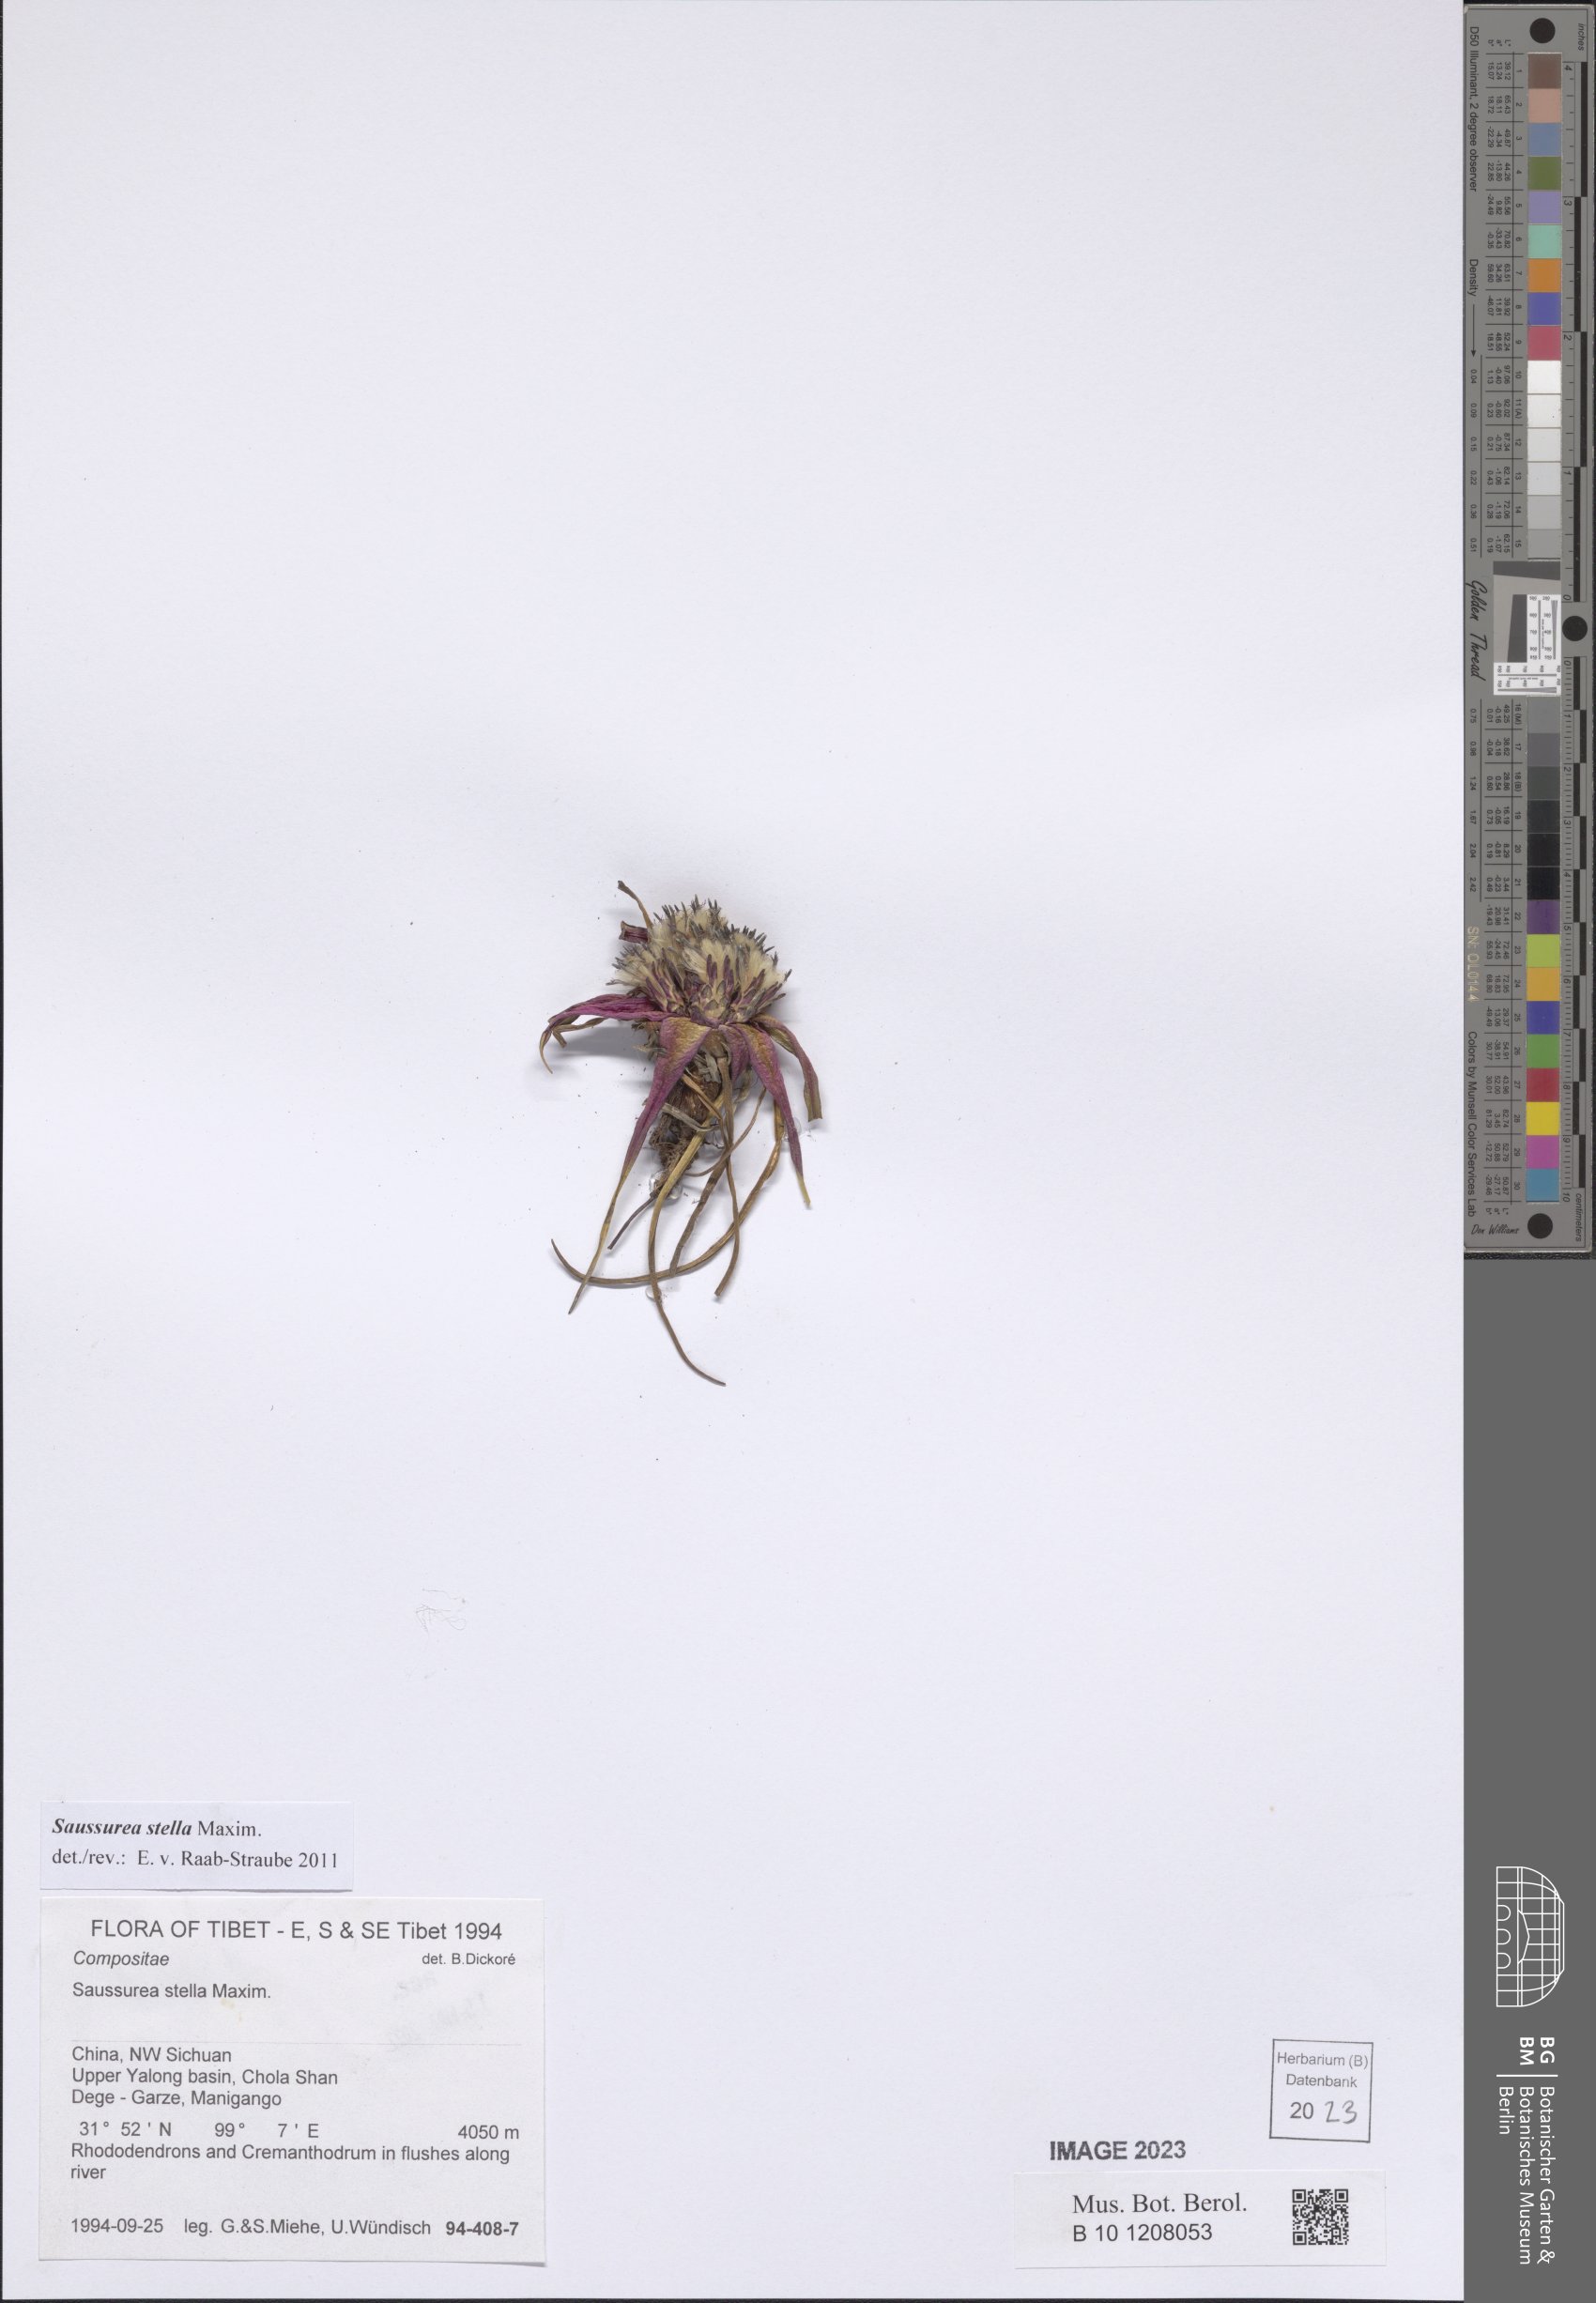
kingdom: Plantae
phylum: Tracheophyta
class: Magnoliopsida
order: Asterales
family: Asteraceae
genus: Saussurea
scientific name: Saussurea stella
